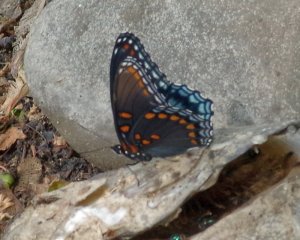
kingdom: Animalia
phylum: Arthropoda
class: Insecta
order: Lepidoptera
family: Nymphalidae
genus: Limenitis
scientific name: Limenitis astyanax
